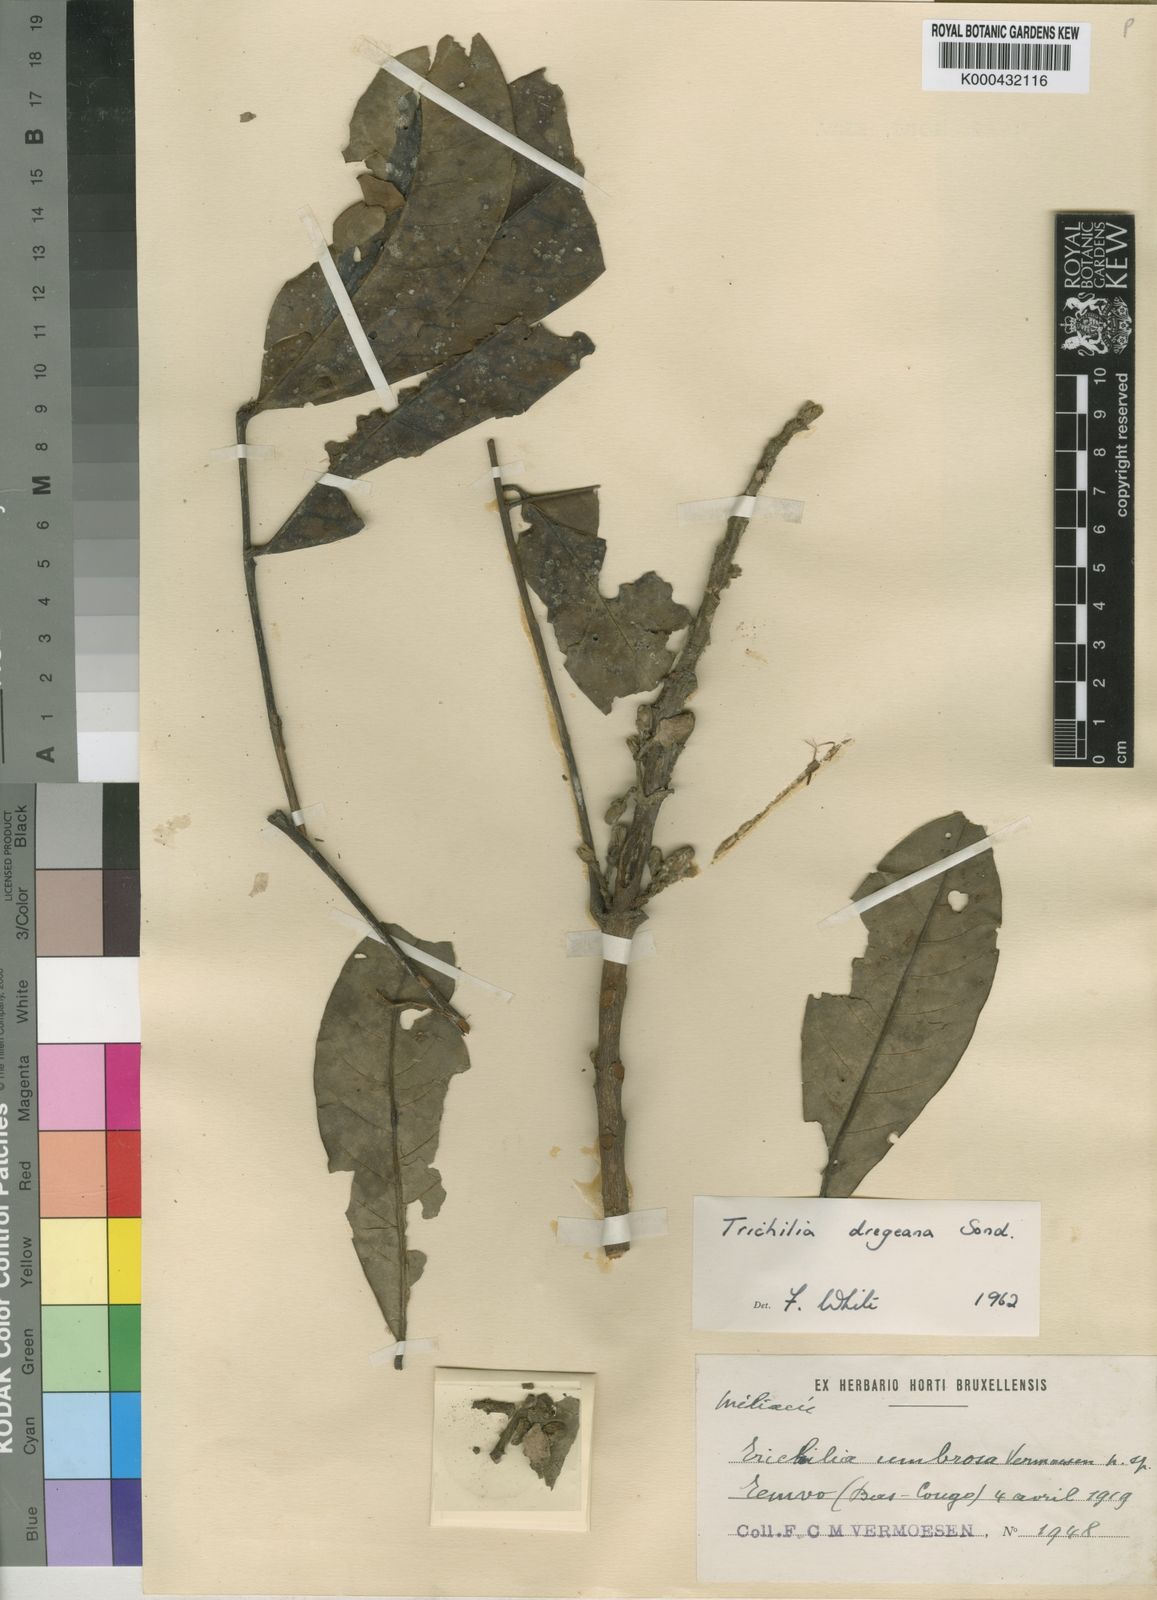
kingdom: Plantae
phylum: Tracheophyta
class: Magnoliopsida
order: Sapindales
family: Meliaceae
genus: Trichilia
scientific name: Trichilia dregeana
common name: Christmas-bells
